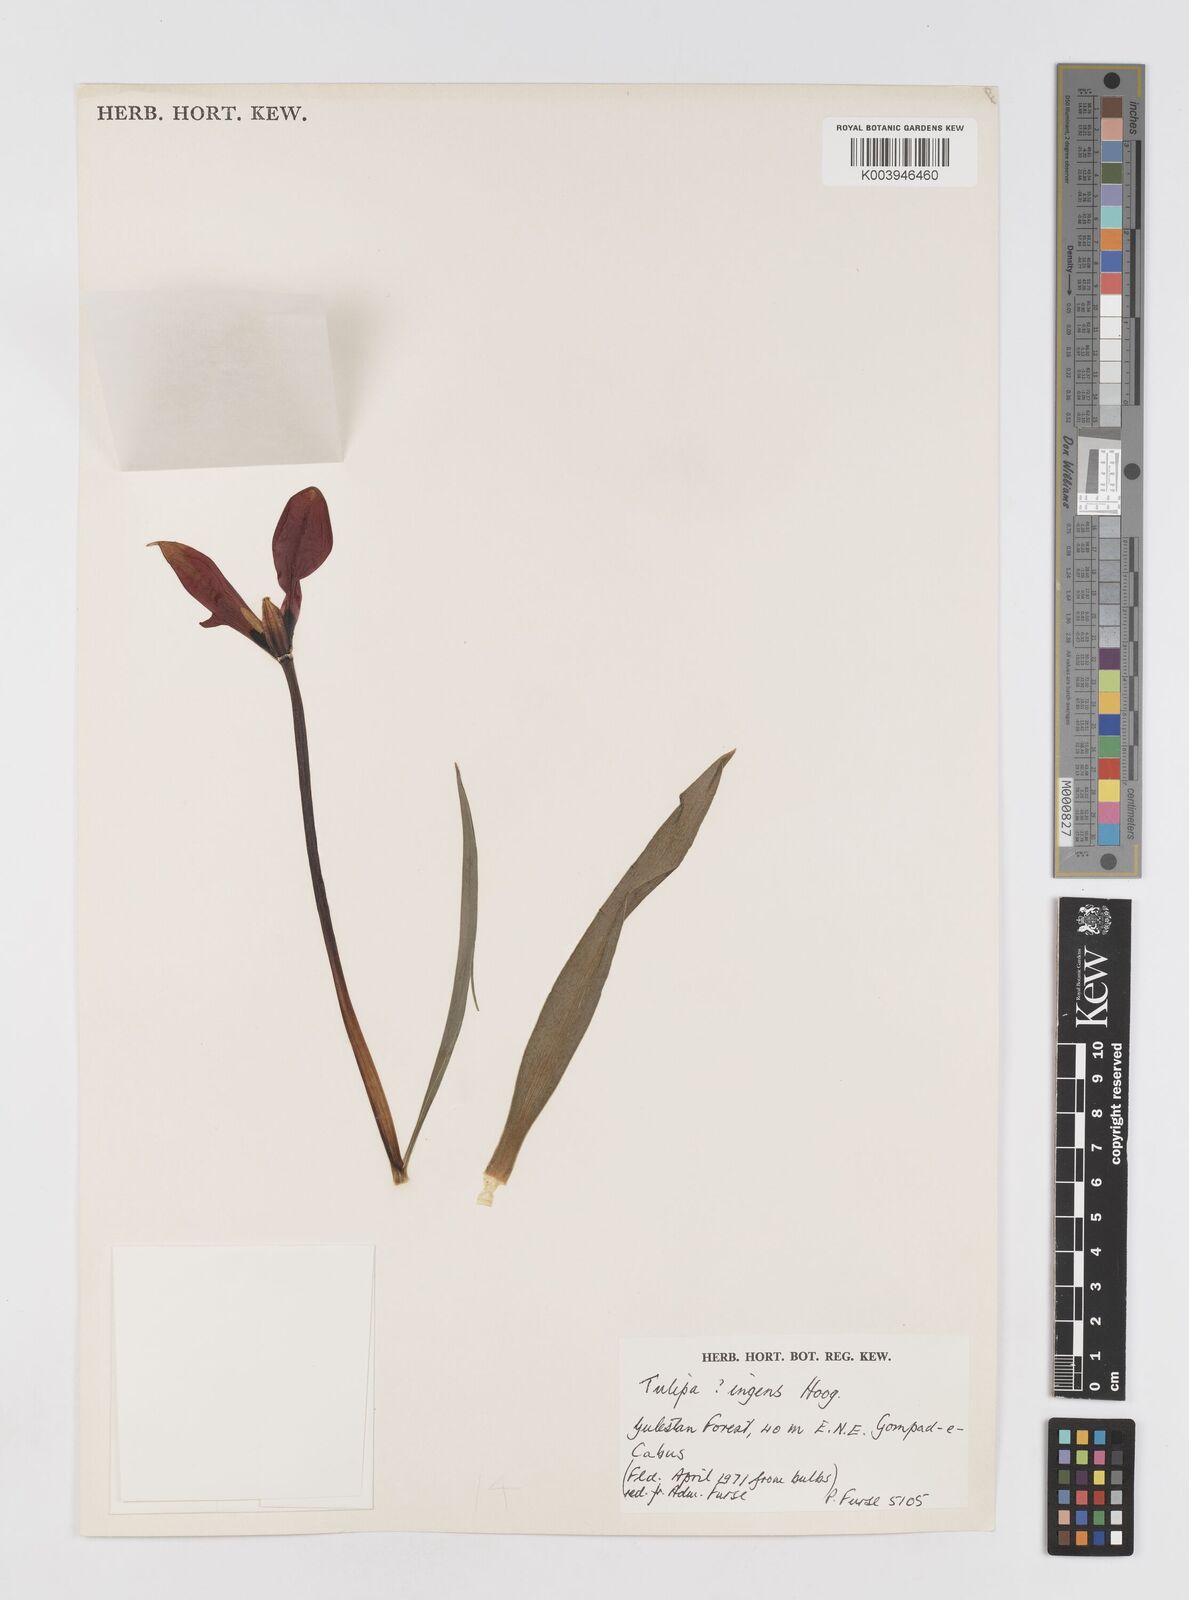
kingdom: Plantae
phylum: Tracheophyta
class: Liliopsida
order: Liliales
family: Liliaceae
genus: Tulipa
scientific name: Tulipa ingens
